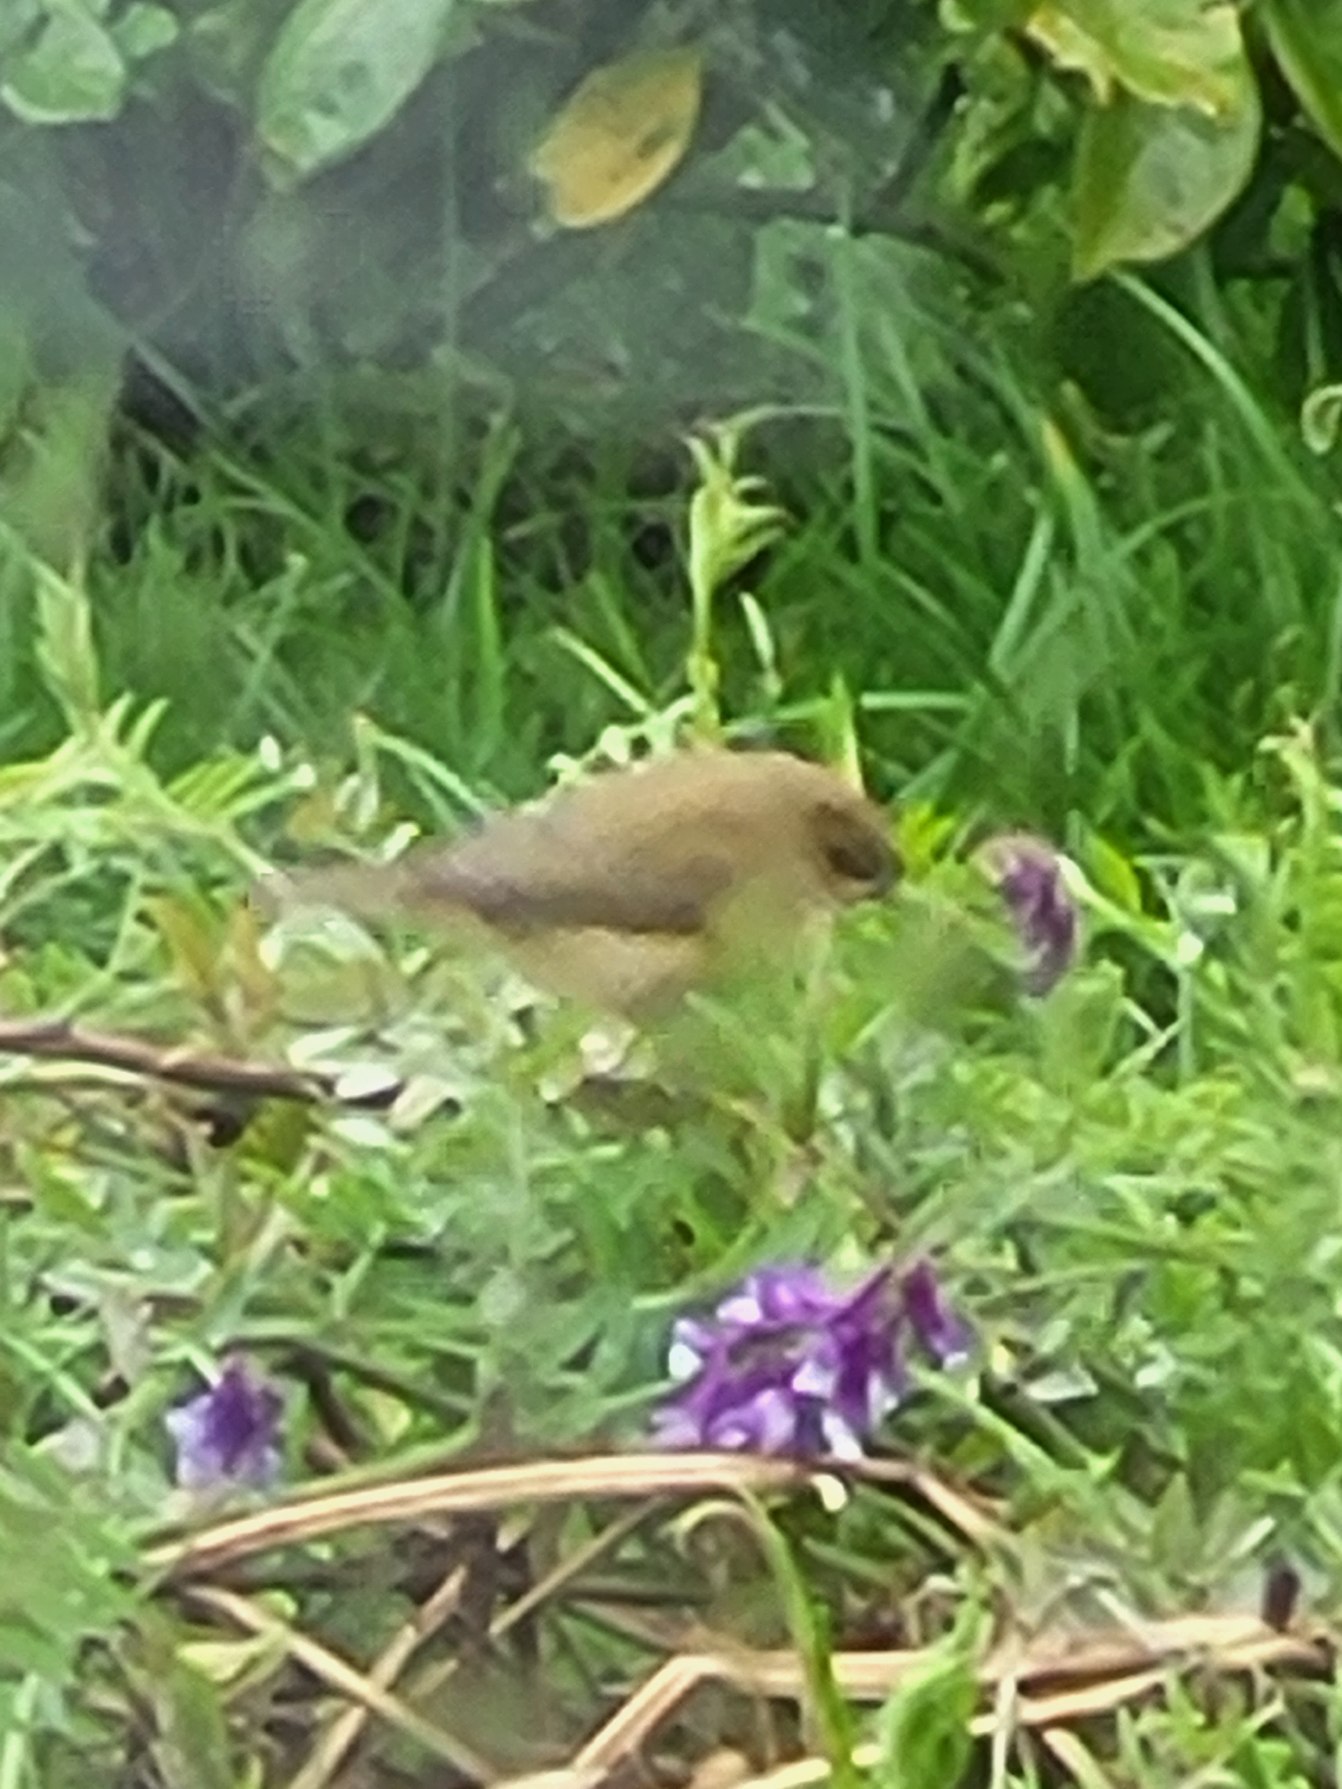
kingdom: Animalia
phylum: Chordata
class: Aves
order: Passeriformes
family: Phylloscopidae
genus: Phylloscopus
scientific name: Phylloscopus collybita
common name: Gransanger
